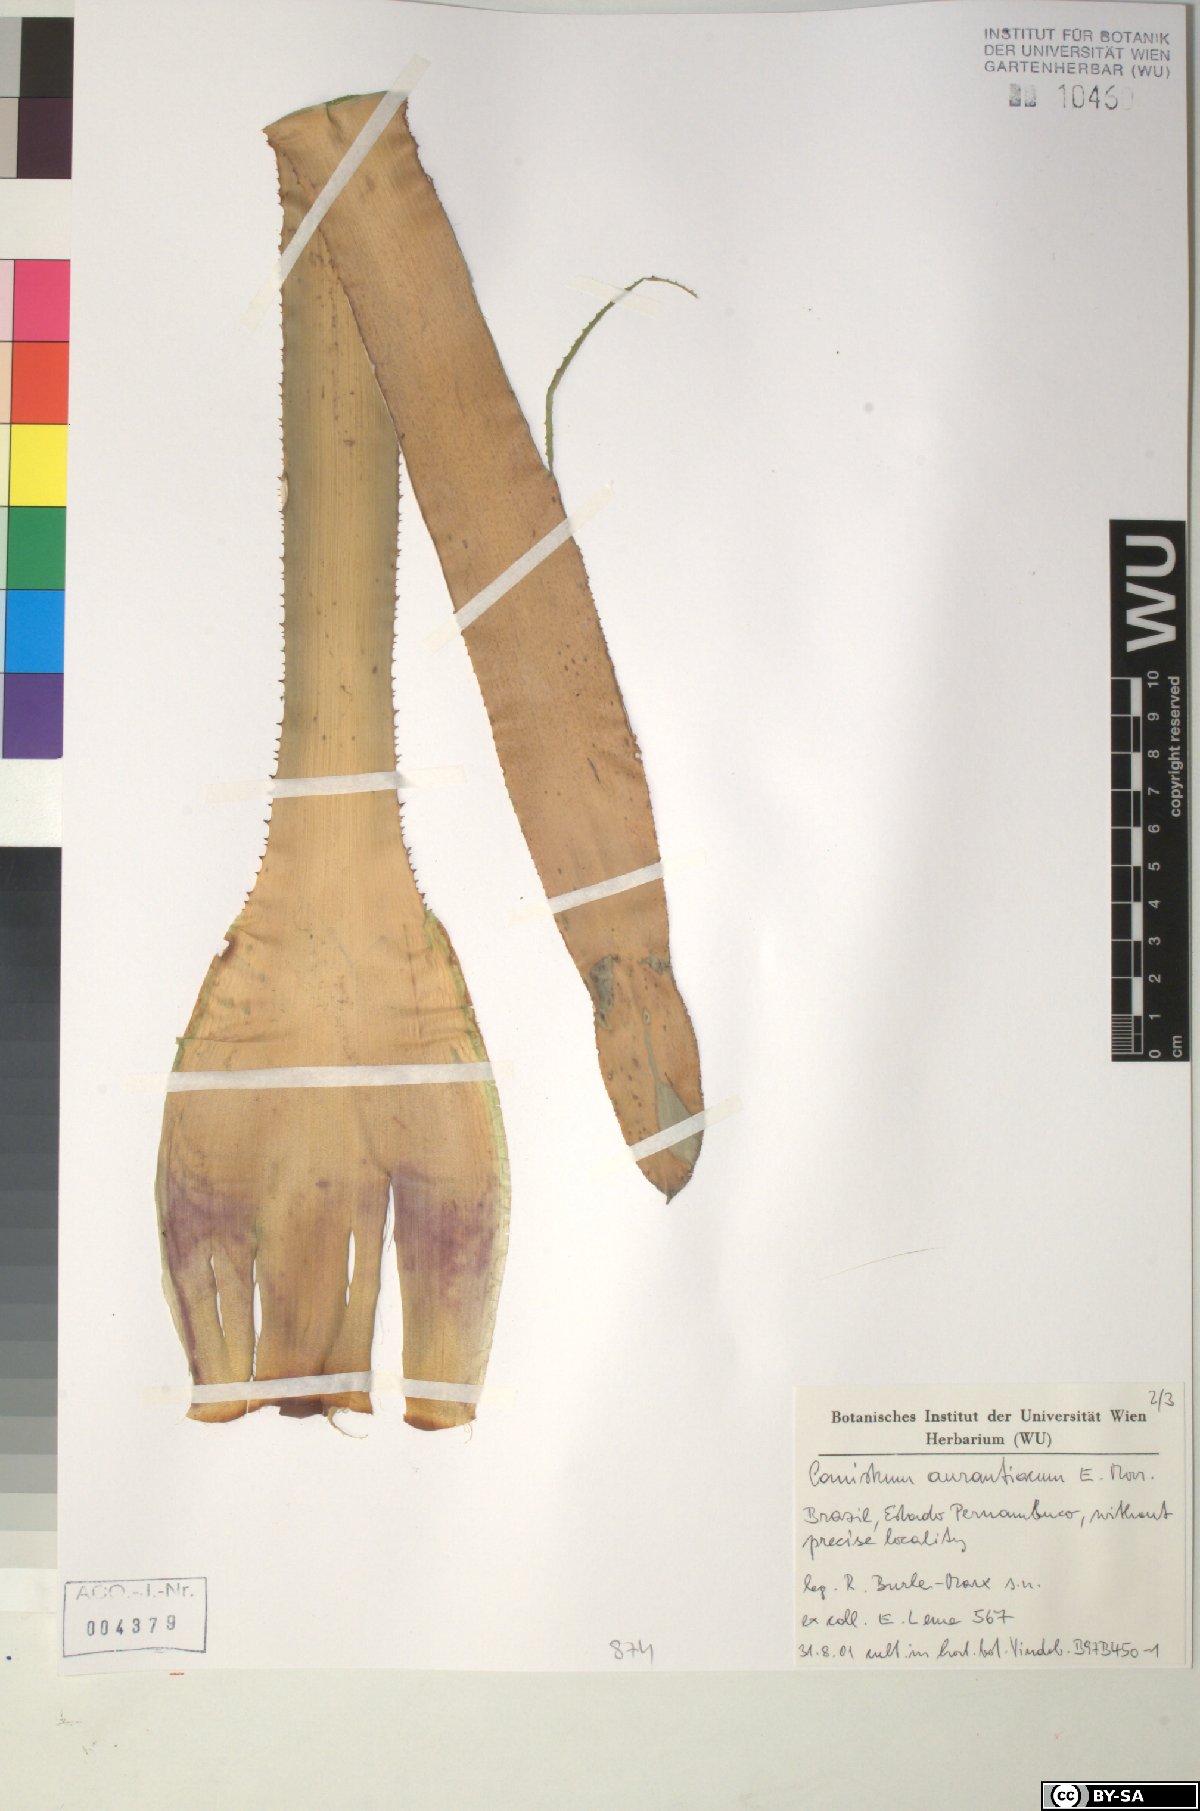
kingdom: Plantae
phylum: Tracheophyta
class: Liliopsida
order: Poales
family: Bromeliaceae
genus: Canistrum
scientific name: Canistrum aurantiacum
